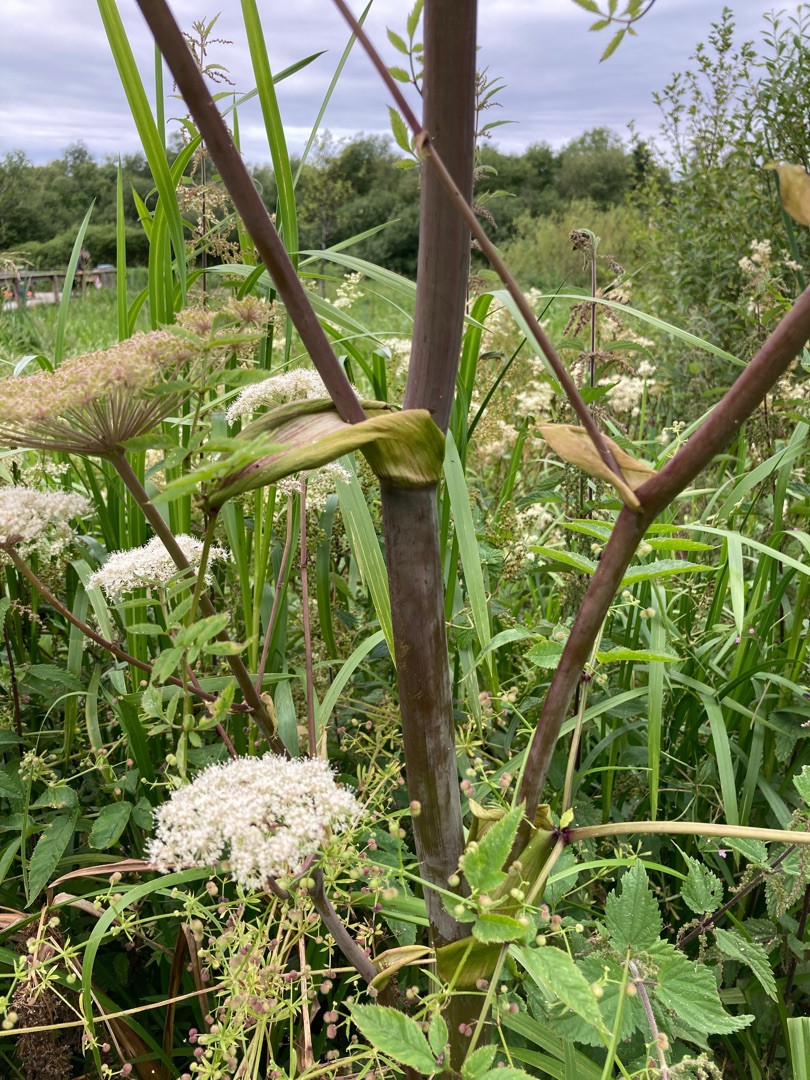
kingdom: Plantae
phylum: Tracheophyta
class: Magnoliopsida
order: Apiales
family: Apiaceae
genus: Angelica
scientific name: Angelica sylvestris
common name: Angelik
